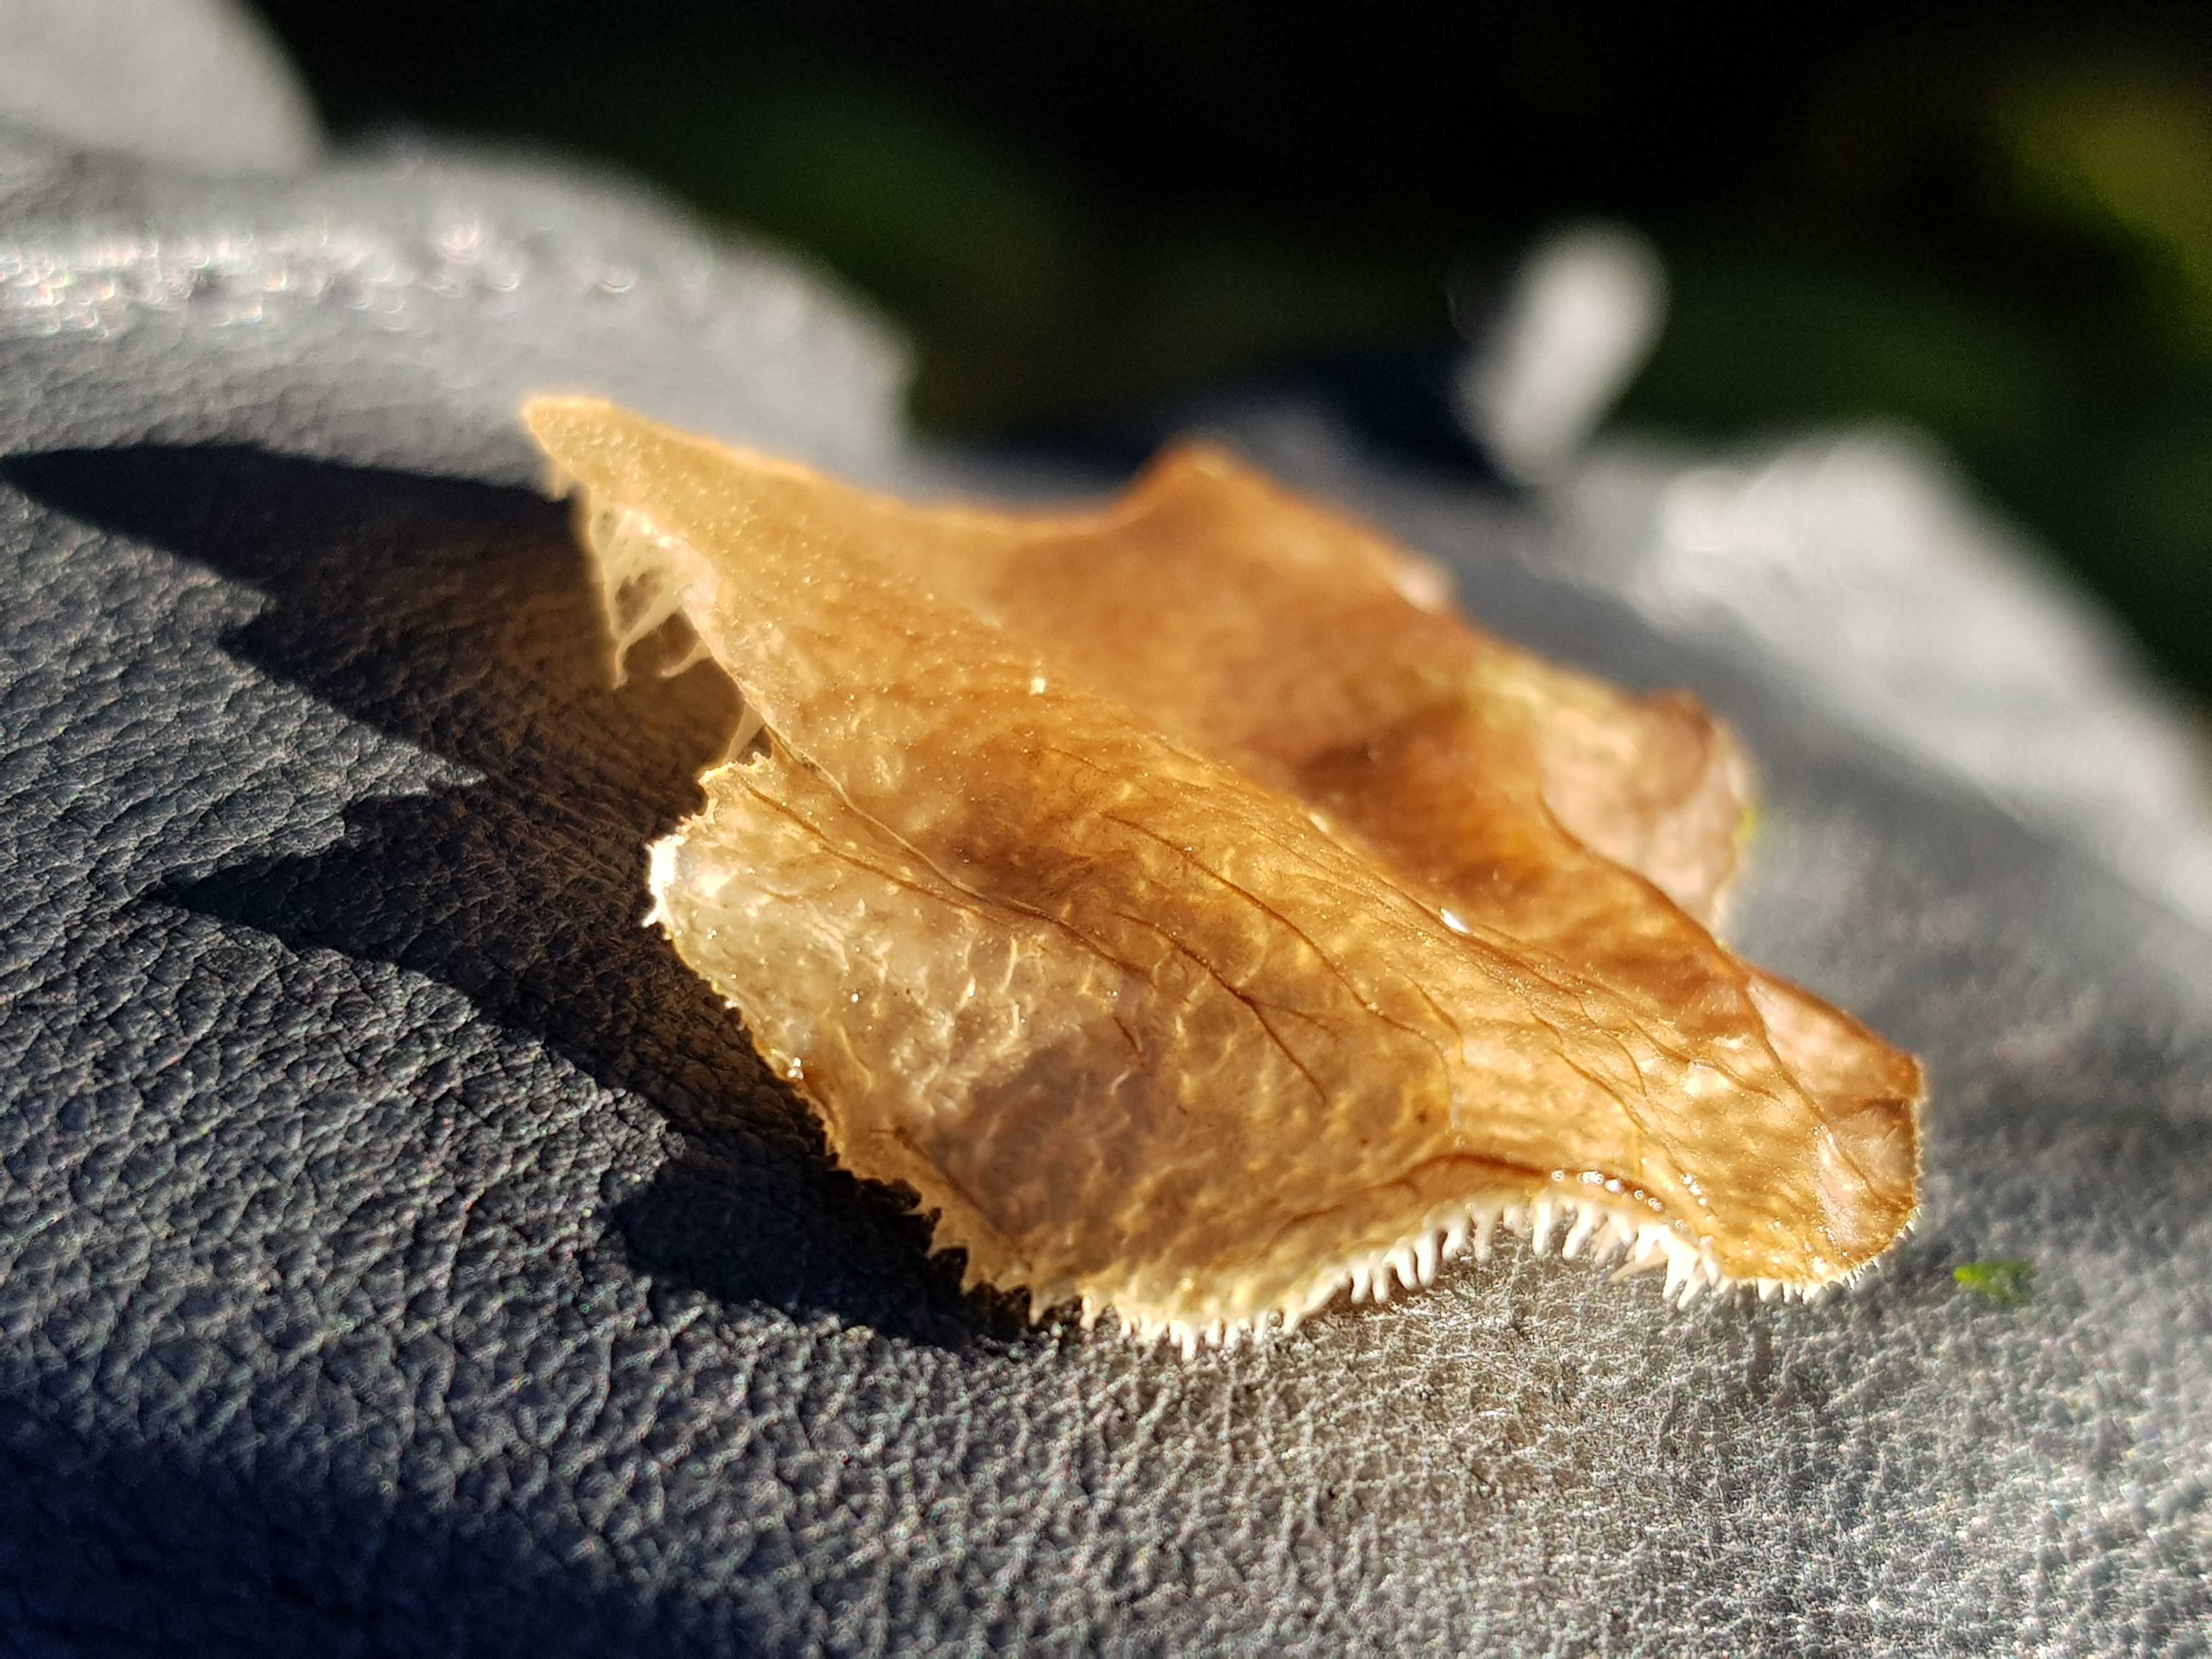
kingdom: Fungi
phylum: Basidiomycota
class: Agaricomycetes
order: Auriculariales
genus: Pseudohydnum
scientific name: Pseudohydnum gelatinosum
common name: bævretand
